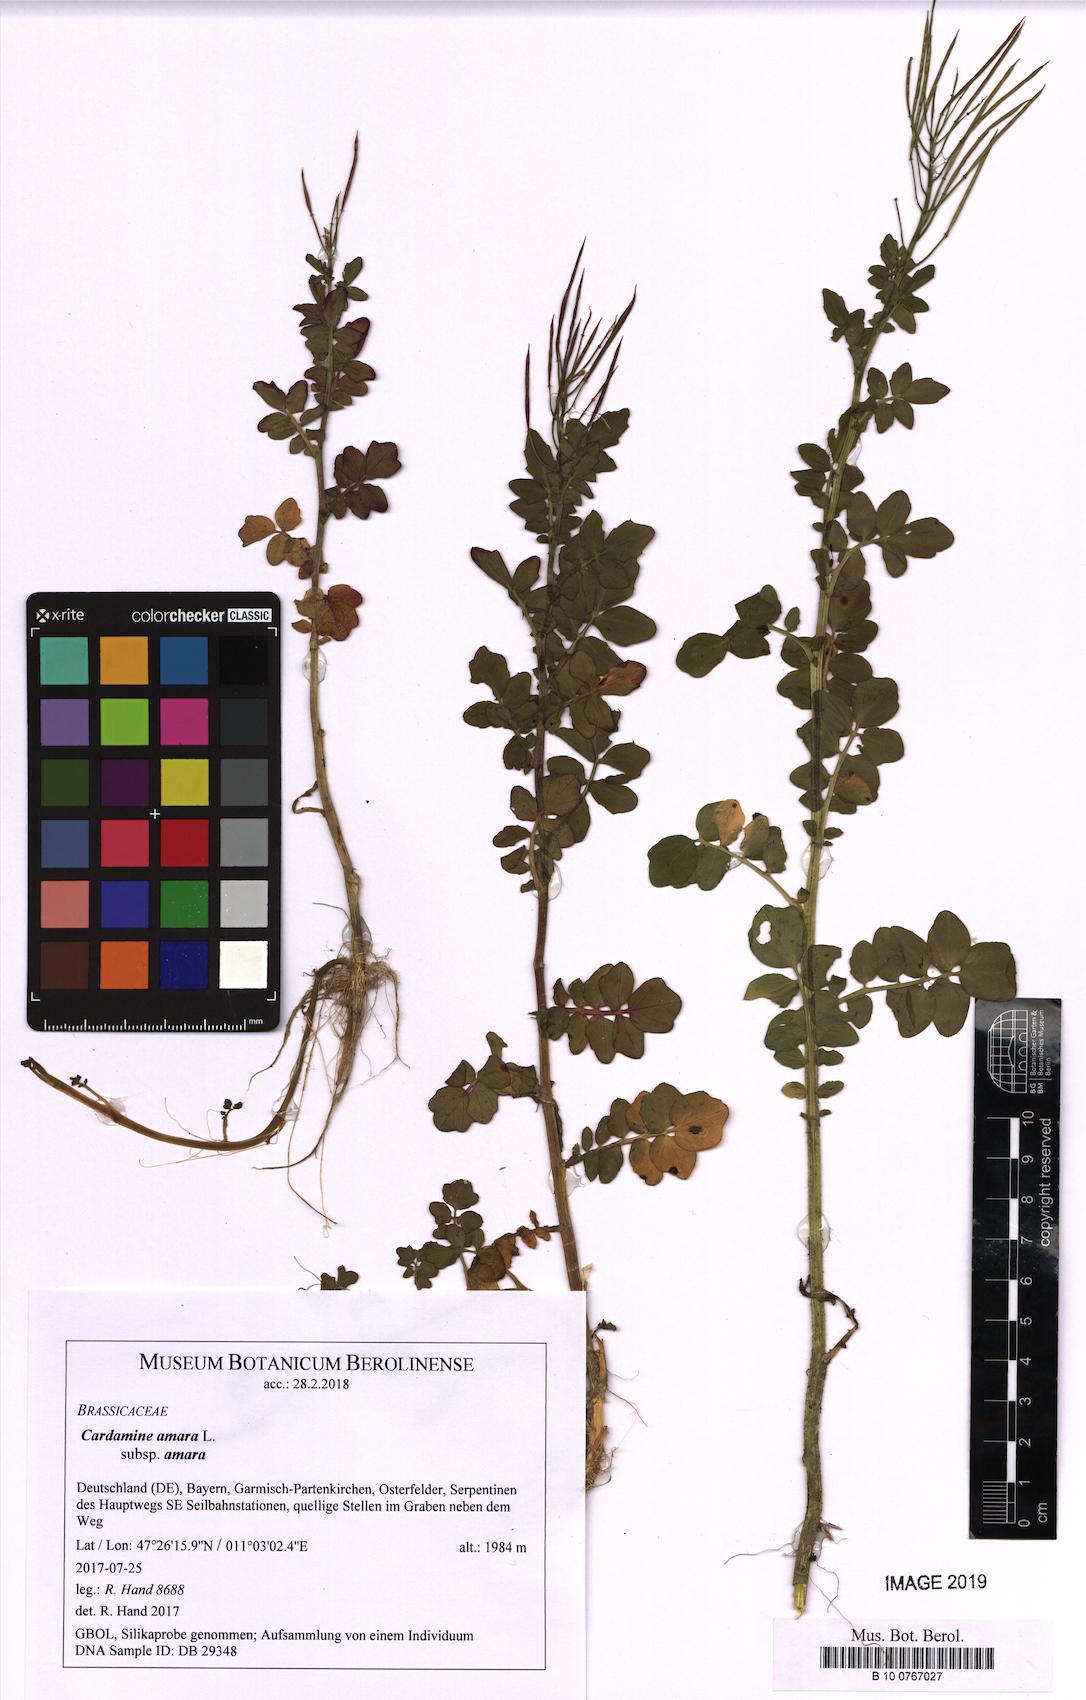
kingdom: Plantae
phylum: Tracheophyta
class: Magnoliopsida
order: Brassicales
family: Brassicaceae
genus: Cardamine
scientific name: Cardamine amara
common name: Large bitter-cress
